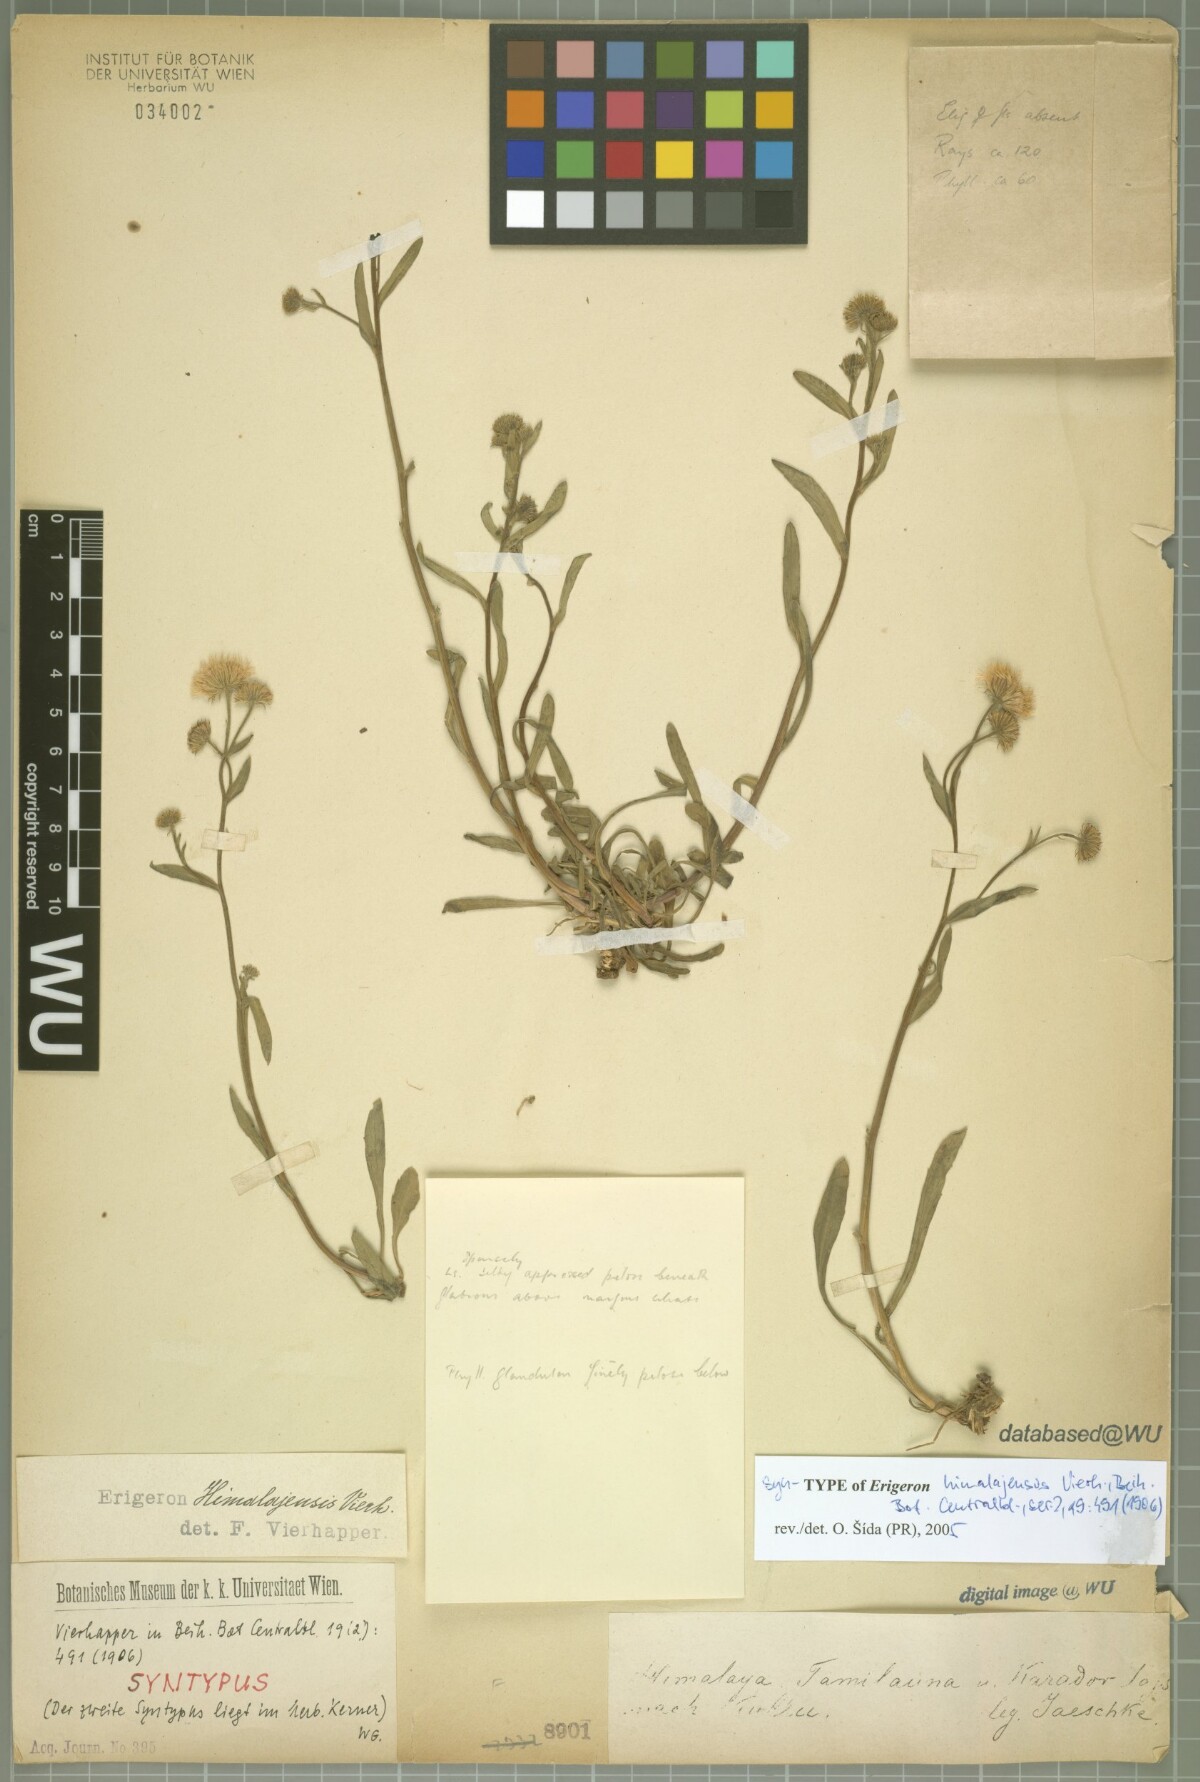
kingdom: Plantae
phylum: Tracheophyta
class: Magnoliopsida
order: Asterales
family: Asteraceae
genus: Erigeron
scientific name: Erigeron himalayensis
